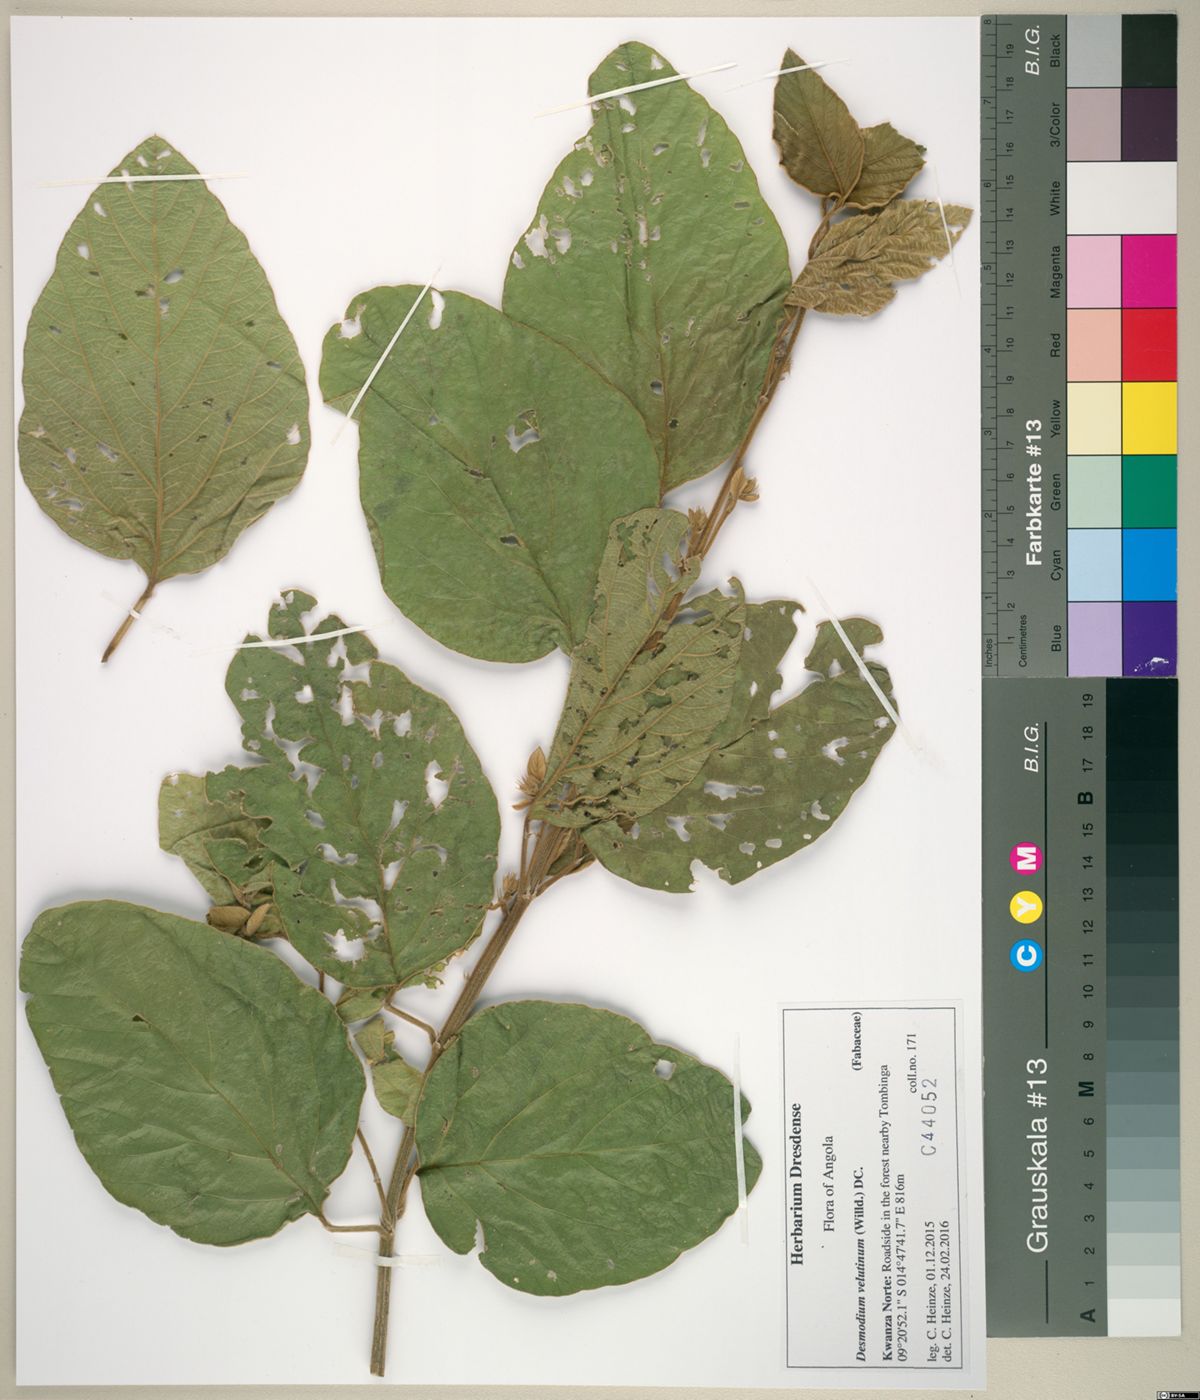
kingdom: Plantae
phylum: Tracheophyta
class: Magnoliopsida
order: Fabales
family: Fabaceae
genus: Polhillides
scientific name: Polhillides velutina
